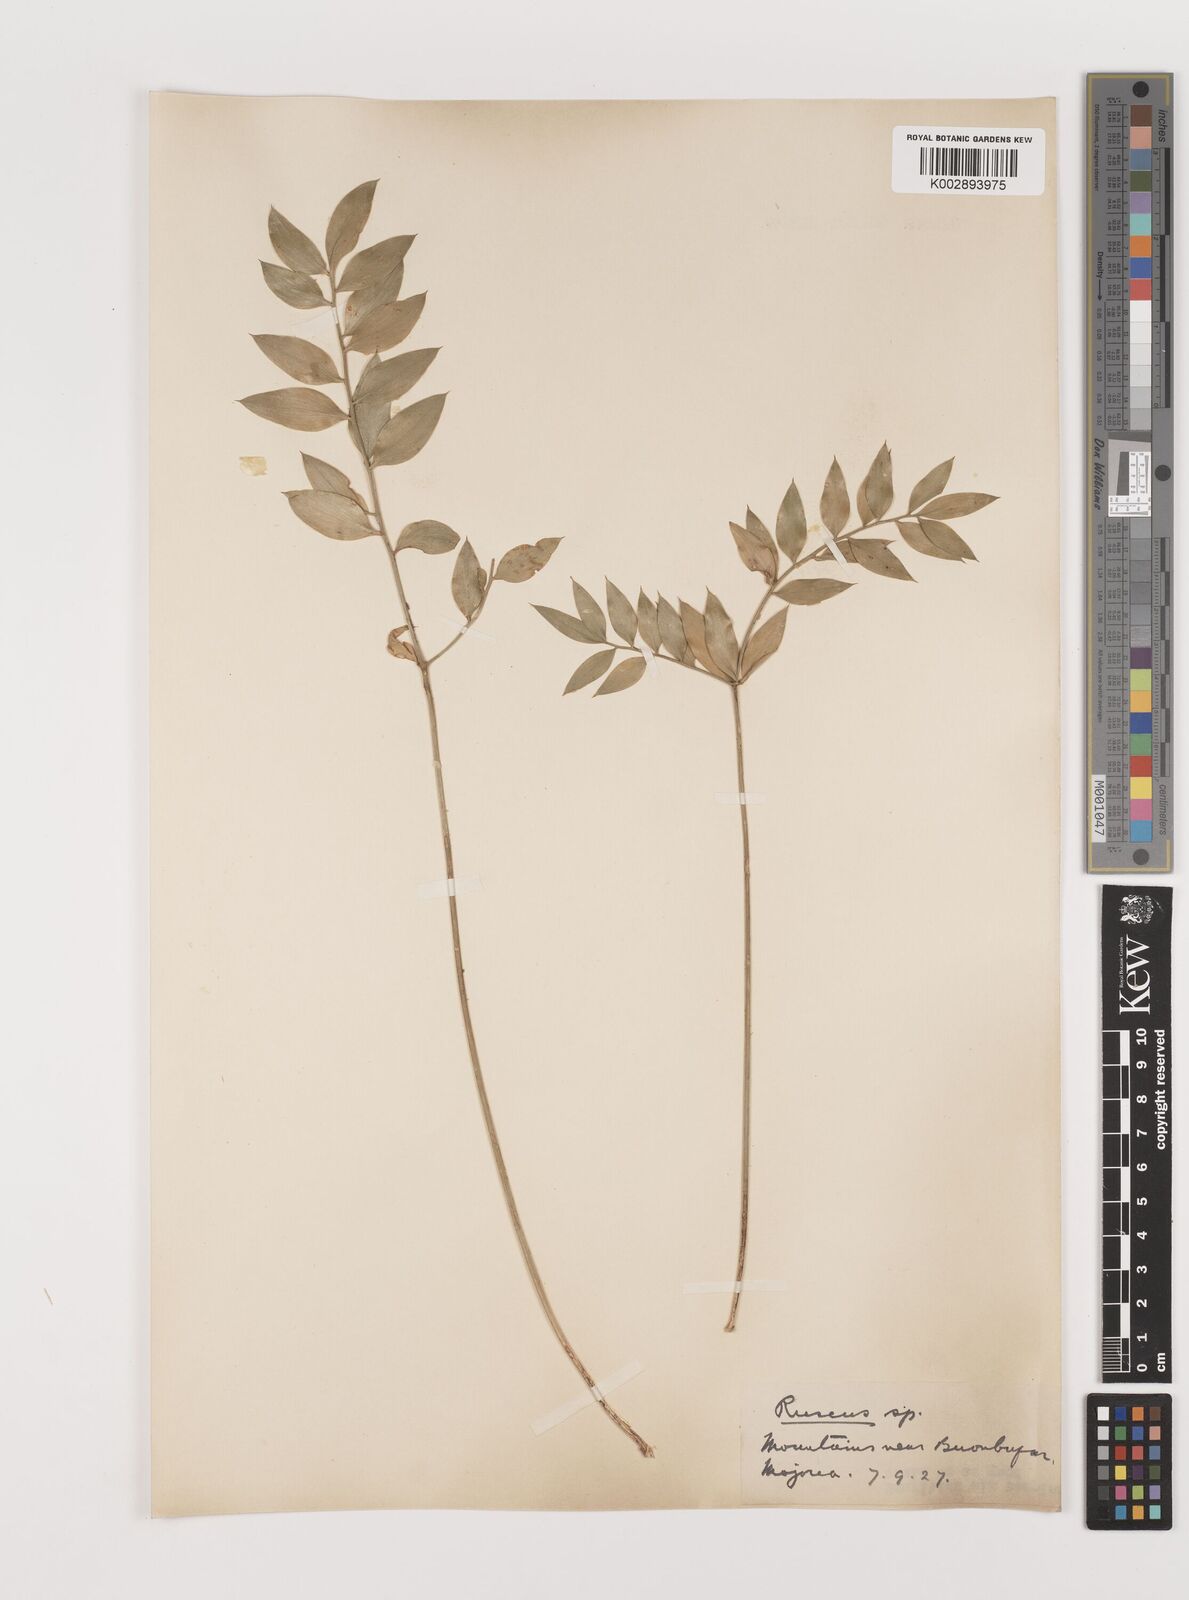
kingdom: Plantae
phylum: Tracheophyta
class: Liliopsida
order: Asparagales
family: Asparagaceae
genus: Ruscus
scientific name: Ruscus aculeatus
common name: Butcher's-broom
